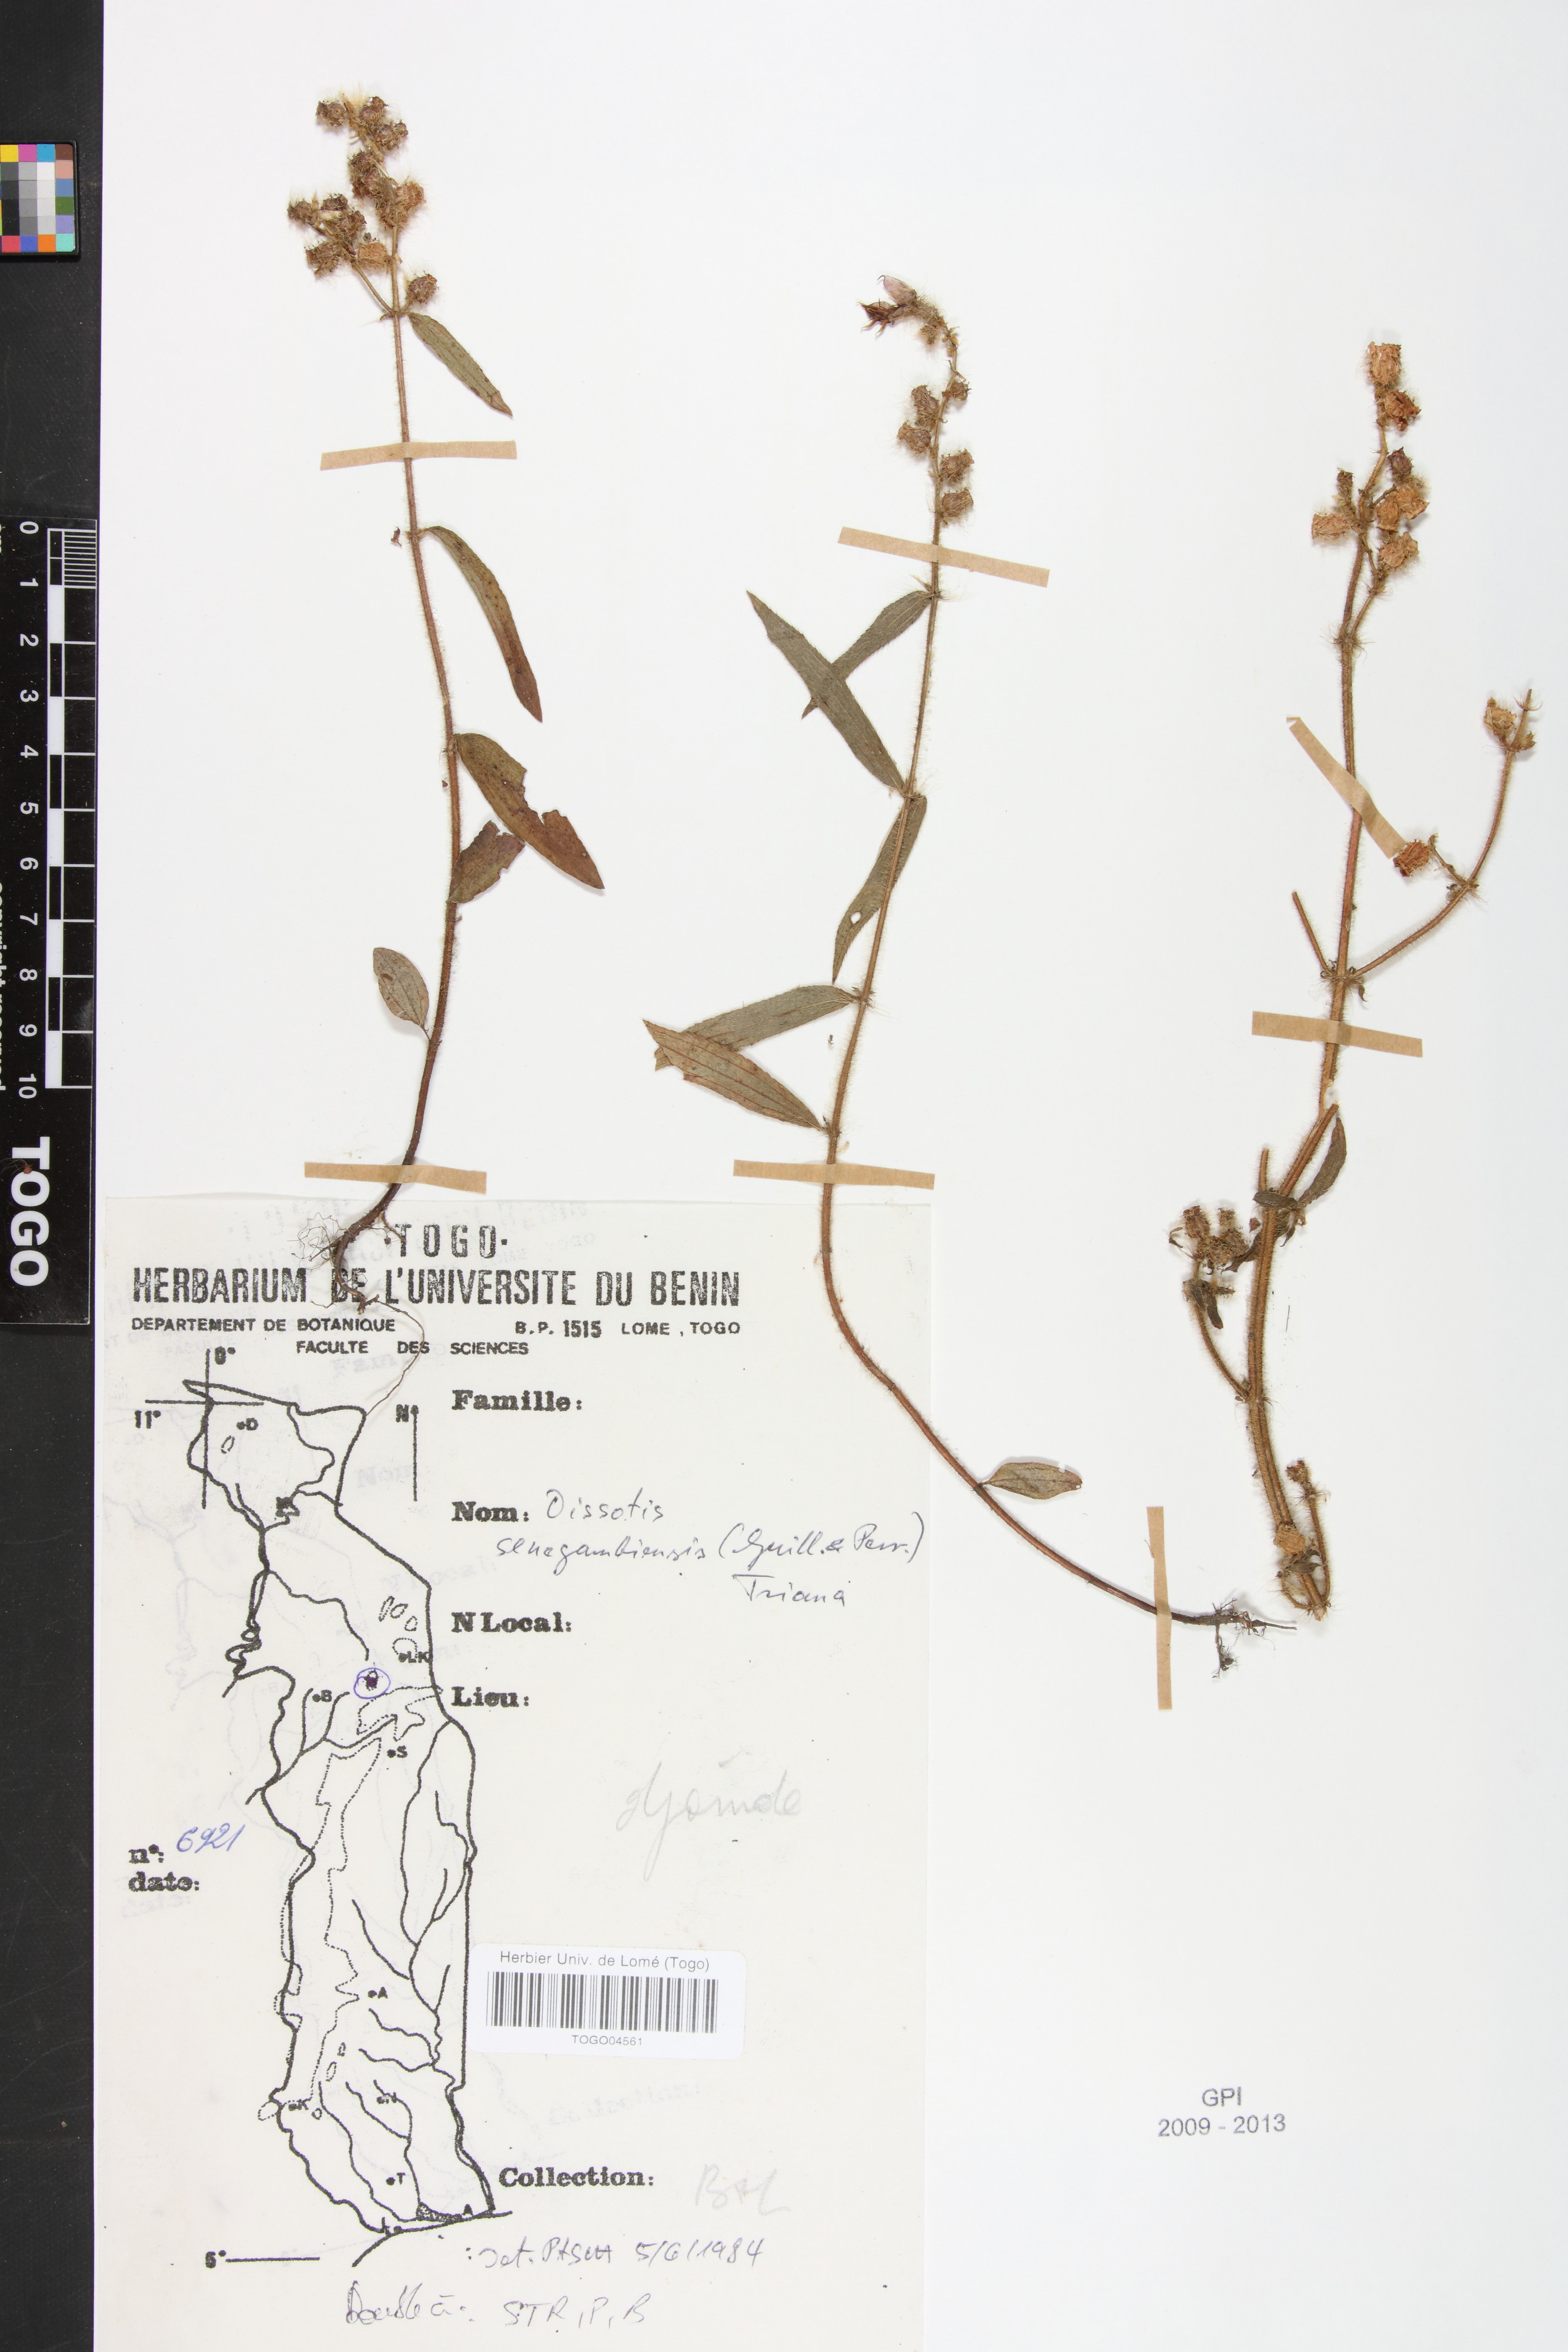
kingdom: Plantae
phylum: Tracheophyta
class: Magnoliopsida
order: Myrtales
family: Melastomataceae
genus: Antherotoma
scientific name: Antherotoma irvingiana
